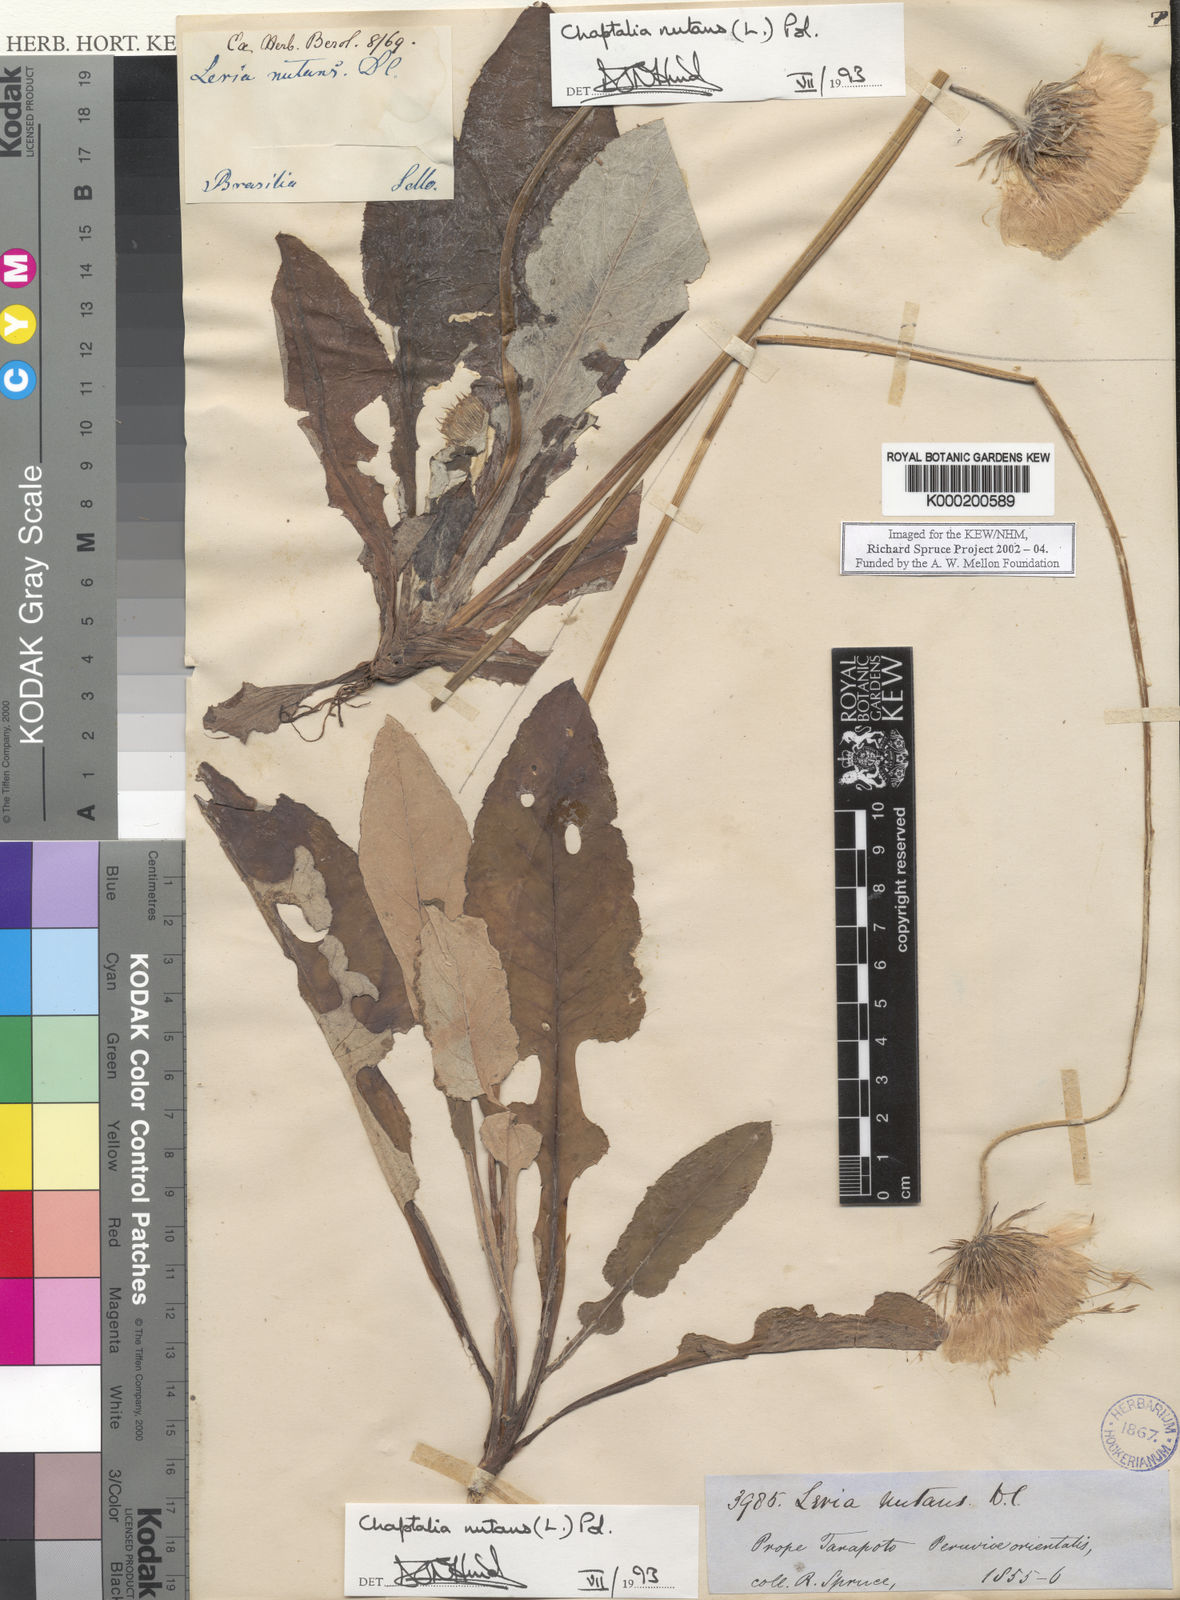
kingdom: Plantae
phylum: Tracheophyta
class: Magnoliopsida
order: Asterales
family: Asteraceae
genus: Chaptalia
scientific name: Chaptalia nutans
